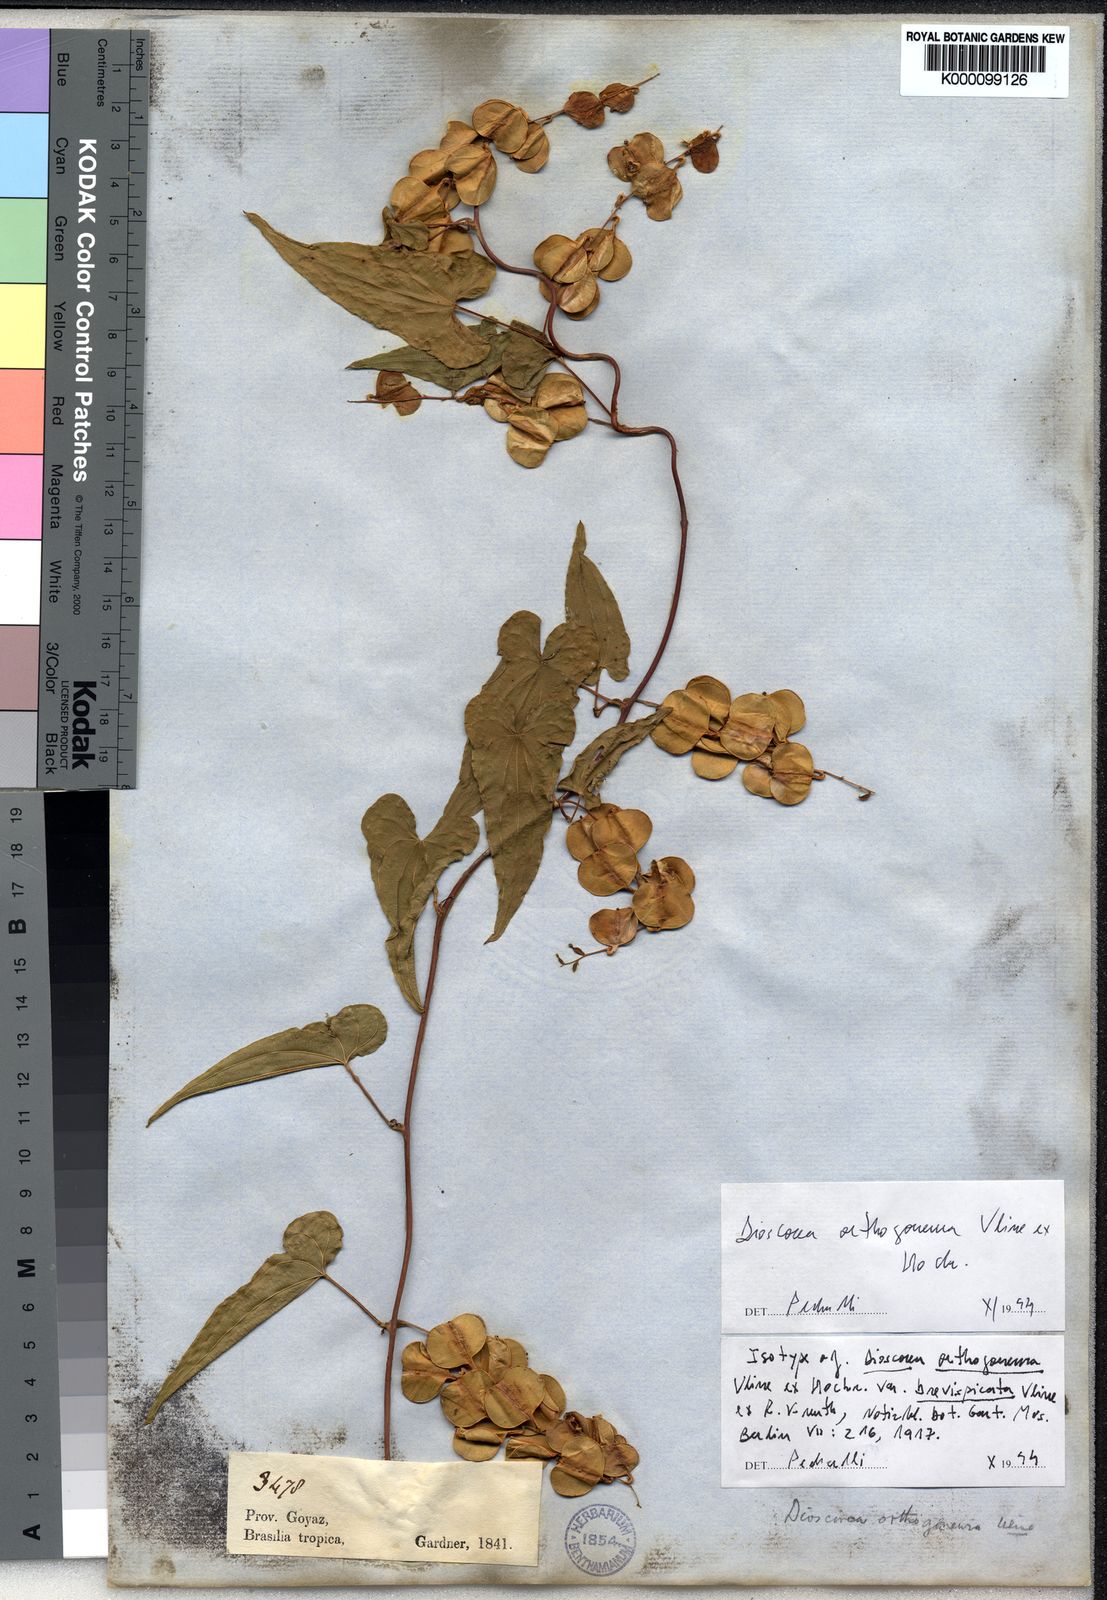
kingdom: Plantae
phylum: Tracheophyta
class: Liliopsida
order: Dioscoreales
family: Dioscoreaceae
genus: Dioscorea
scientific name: Dioscorea orthogoneura
